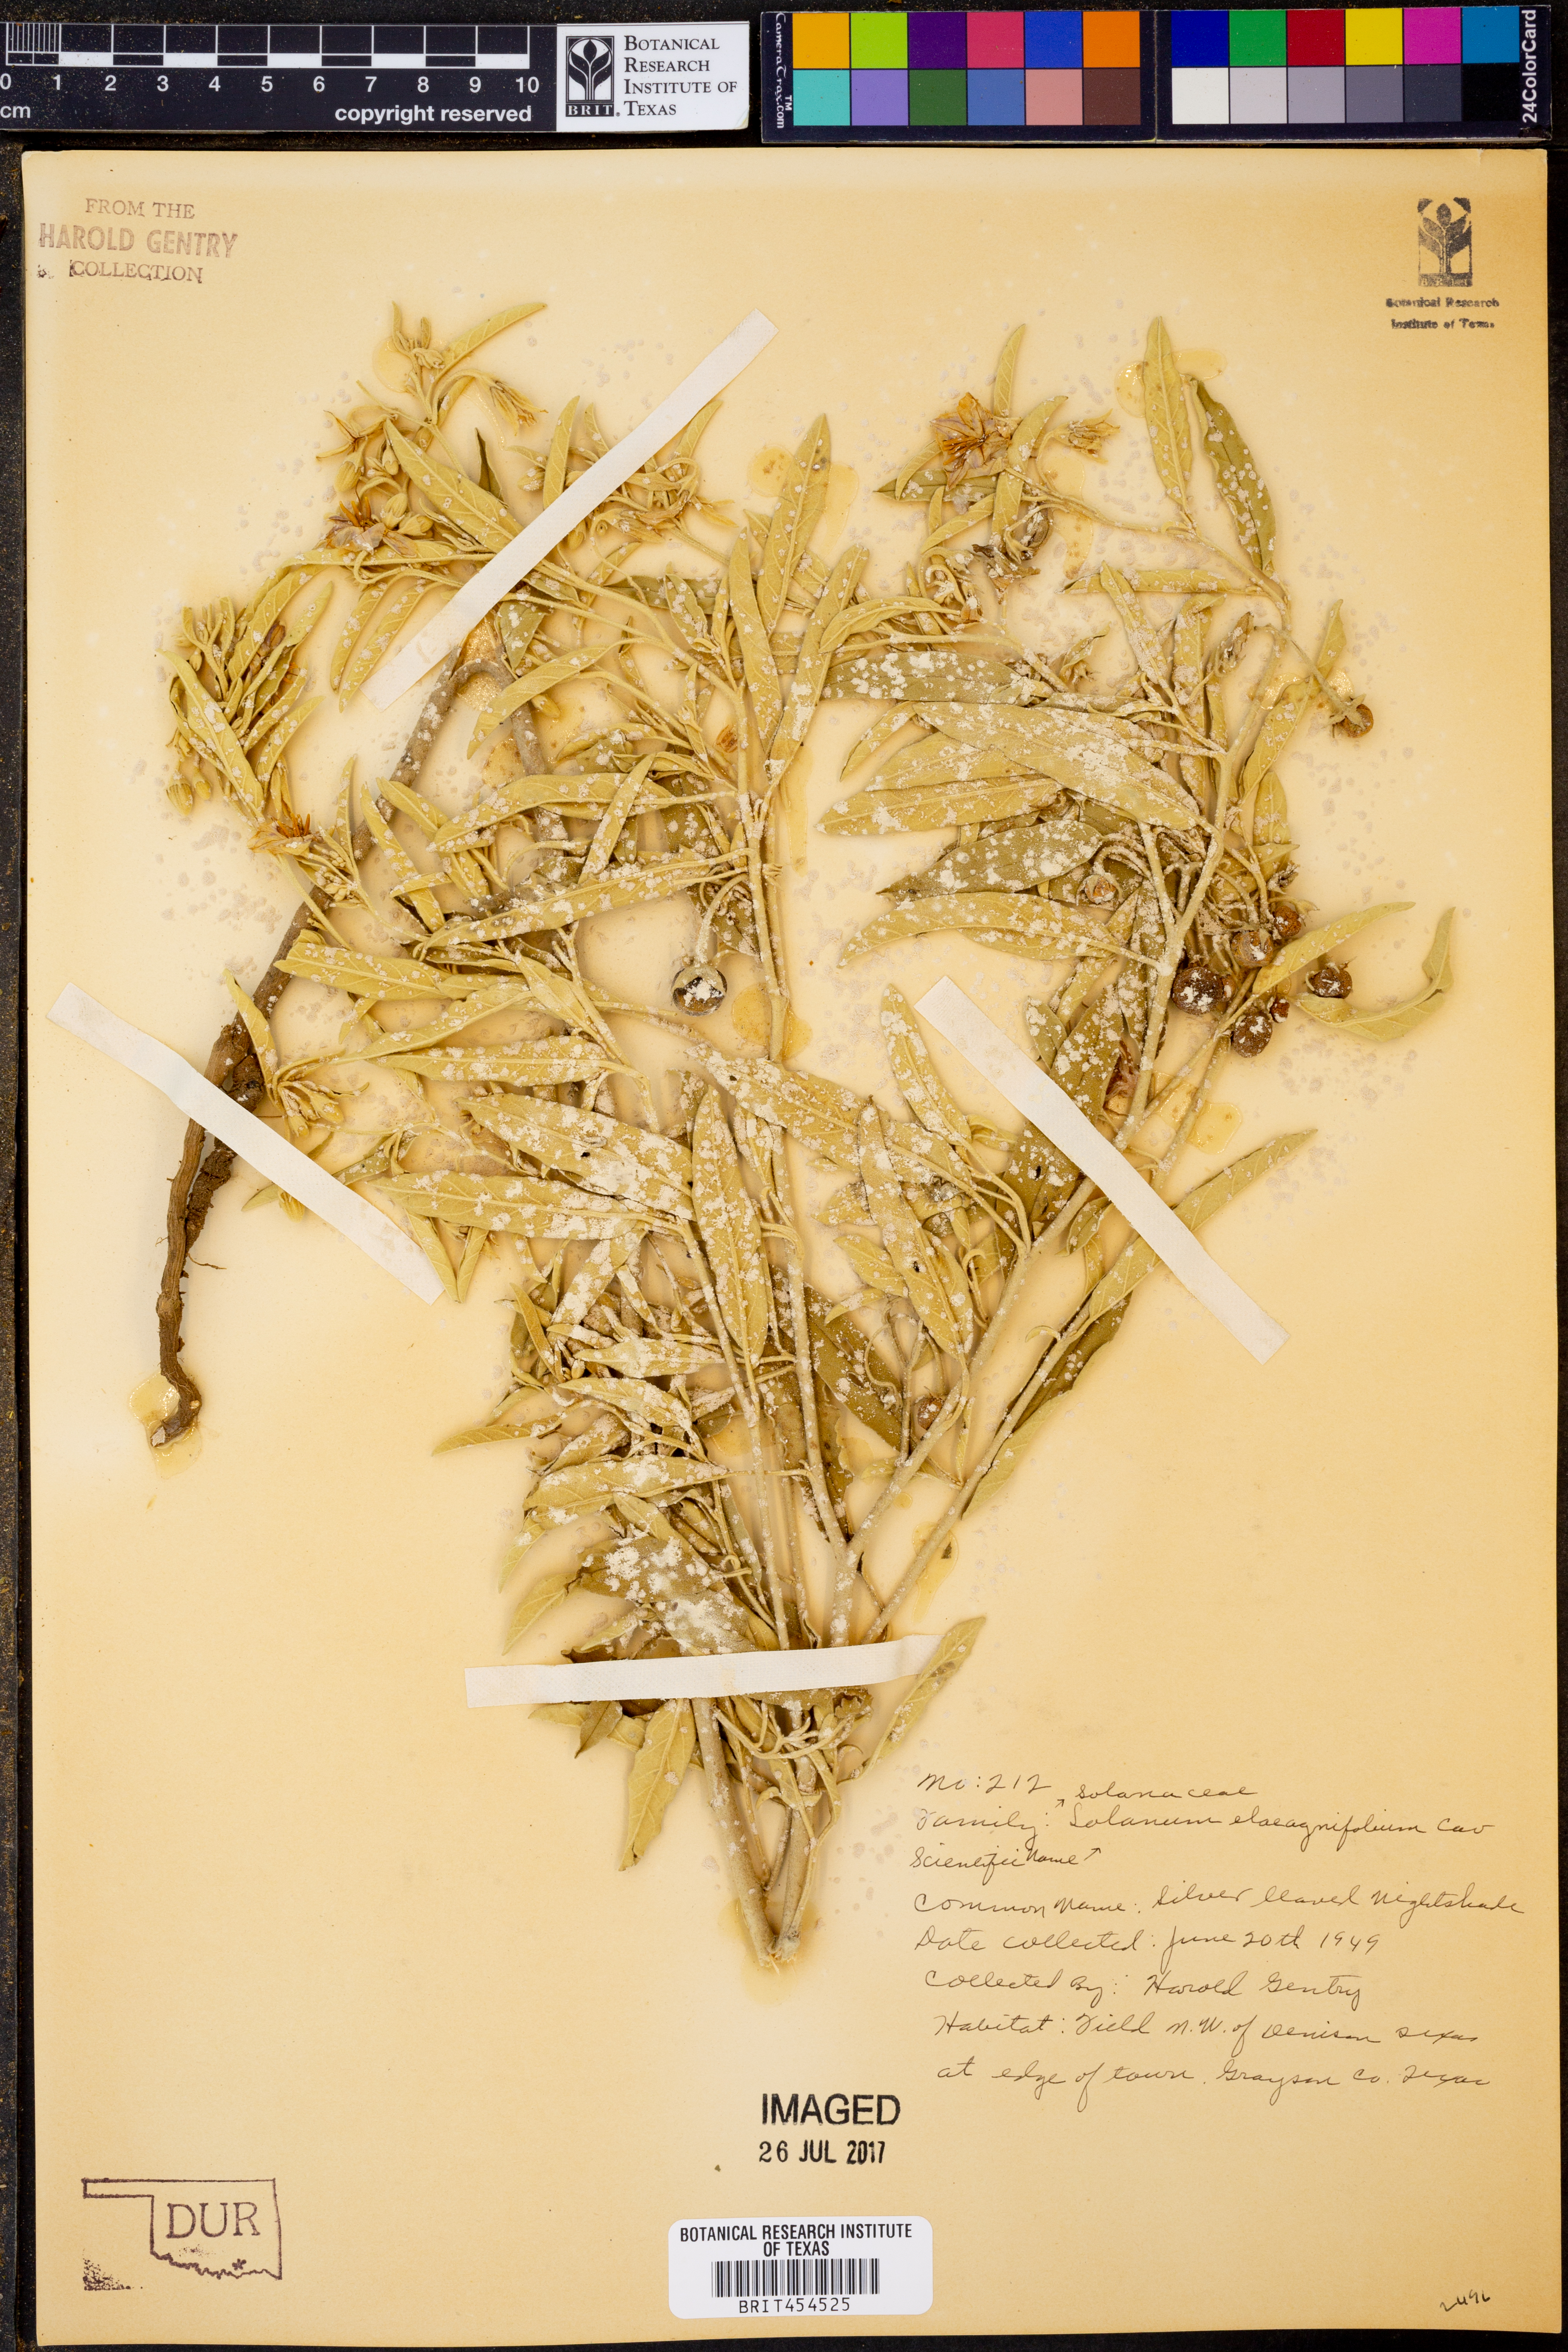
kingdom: Plantae
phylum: Tracheophyta
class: Magnoliopsida
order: Solanales
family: Solanaceae
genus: Solanum
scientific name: Solanum elaeagnifolium
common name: Silverleaf nightshade
